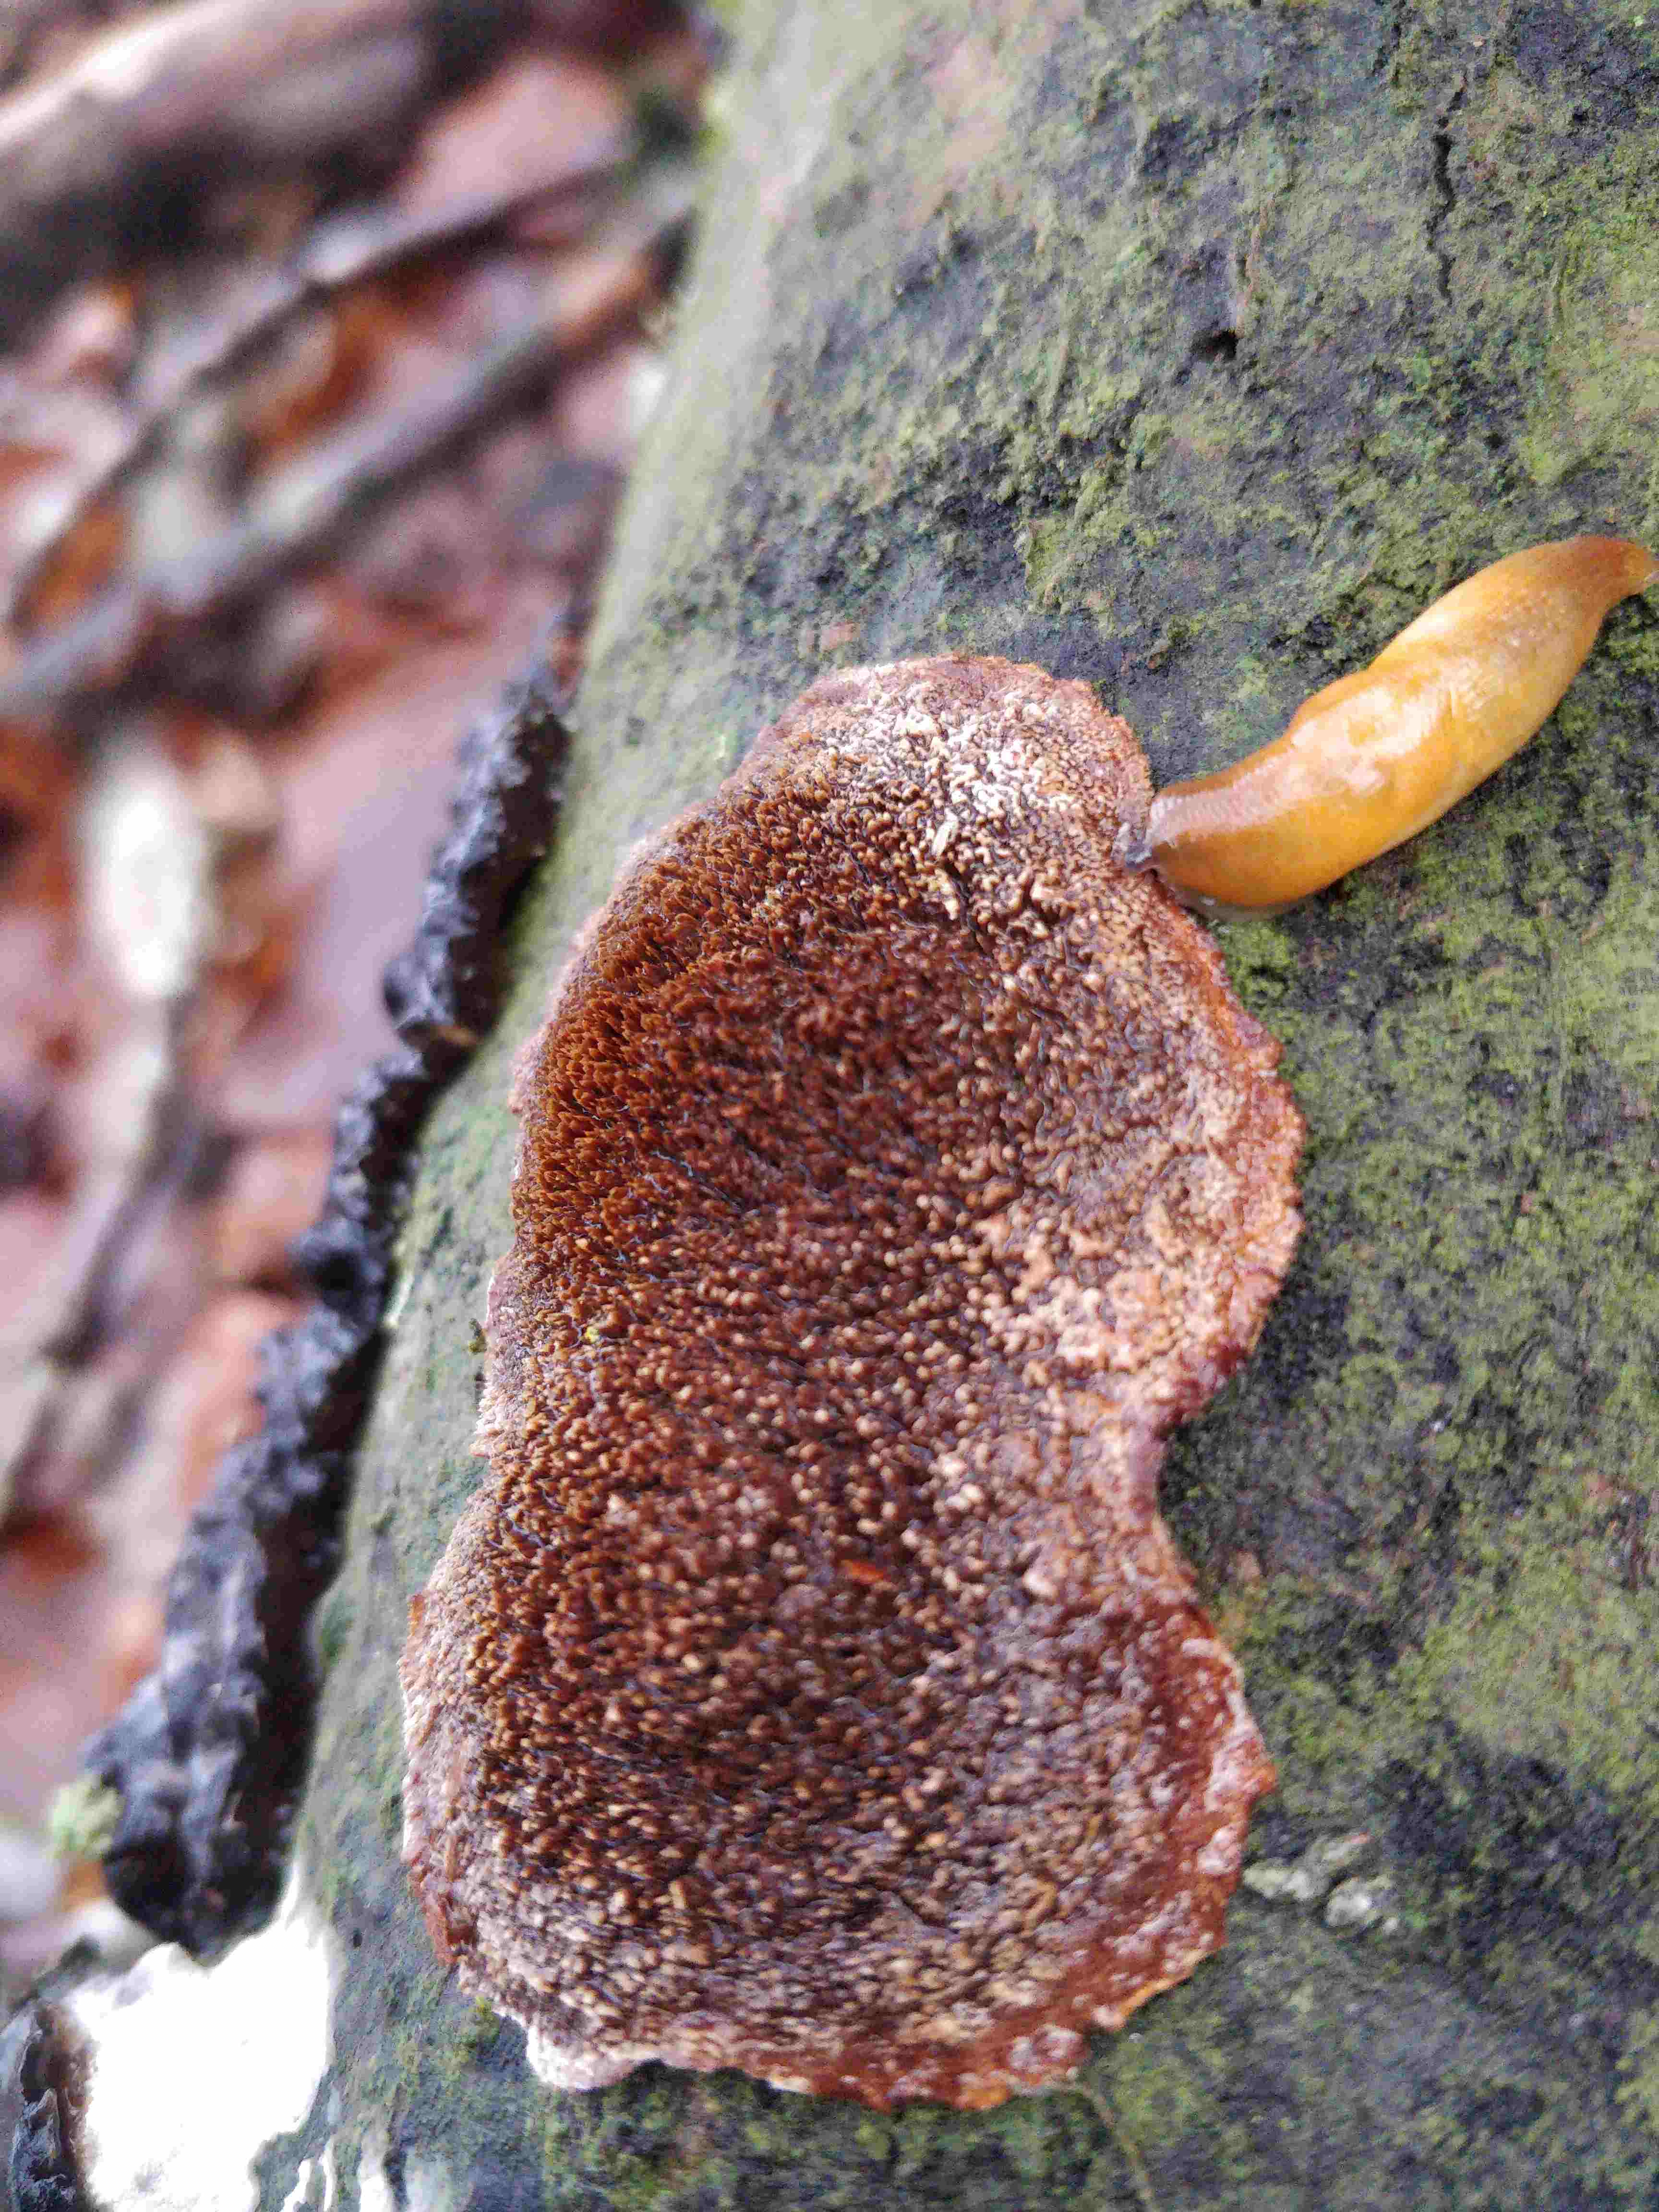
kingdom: Fungi
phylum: Basidiomycota
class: Agaricomycetes
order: Hymenochaetales
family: Hymenochaetaceae
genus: Mensularia
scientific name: Mensularia nodulosa
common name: bøge-spejlporesvamp
